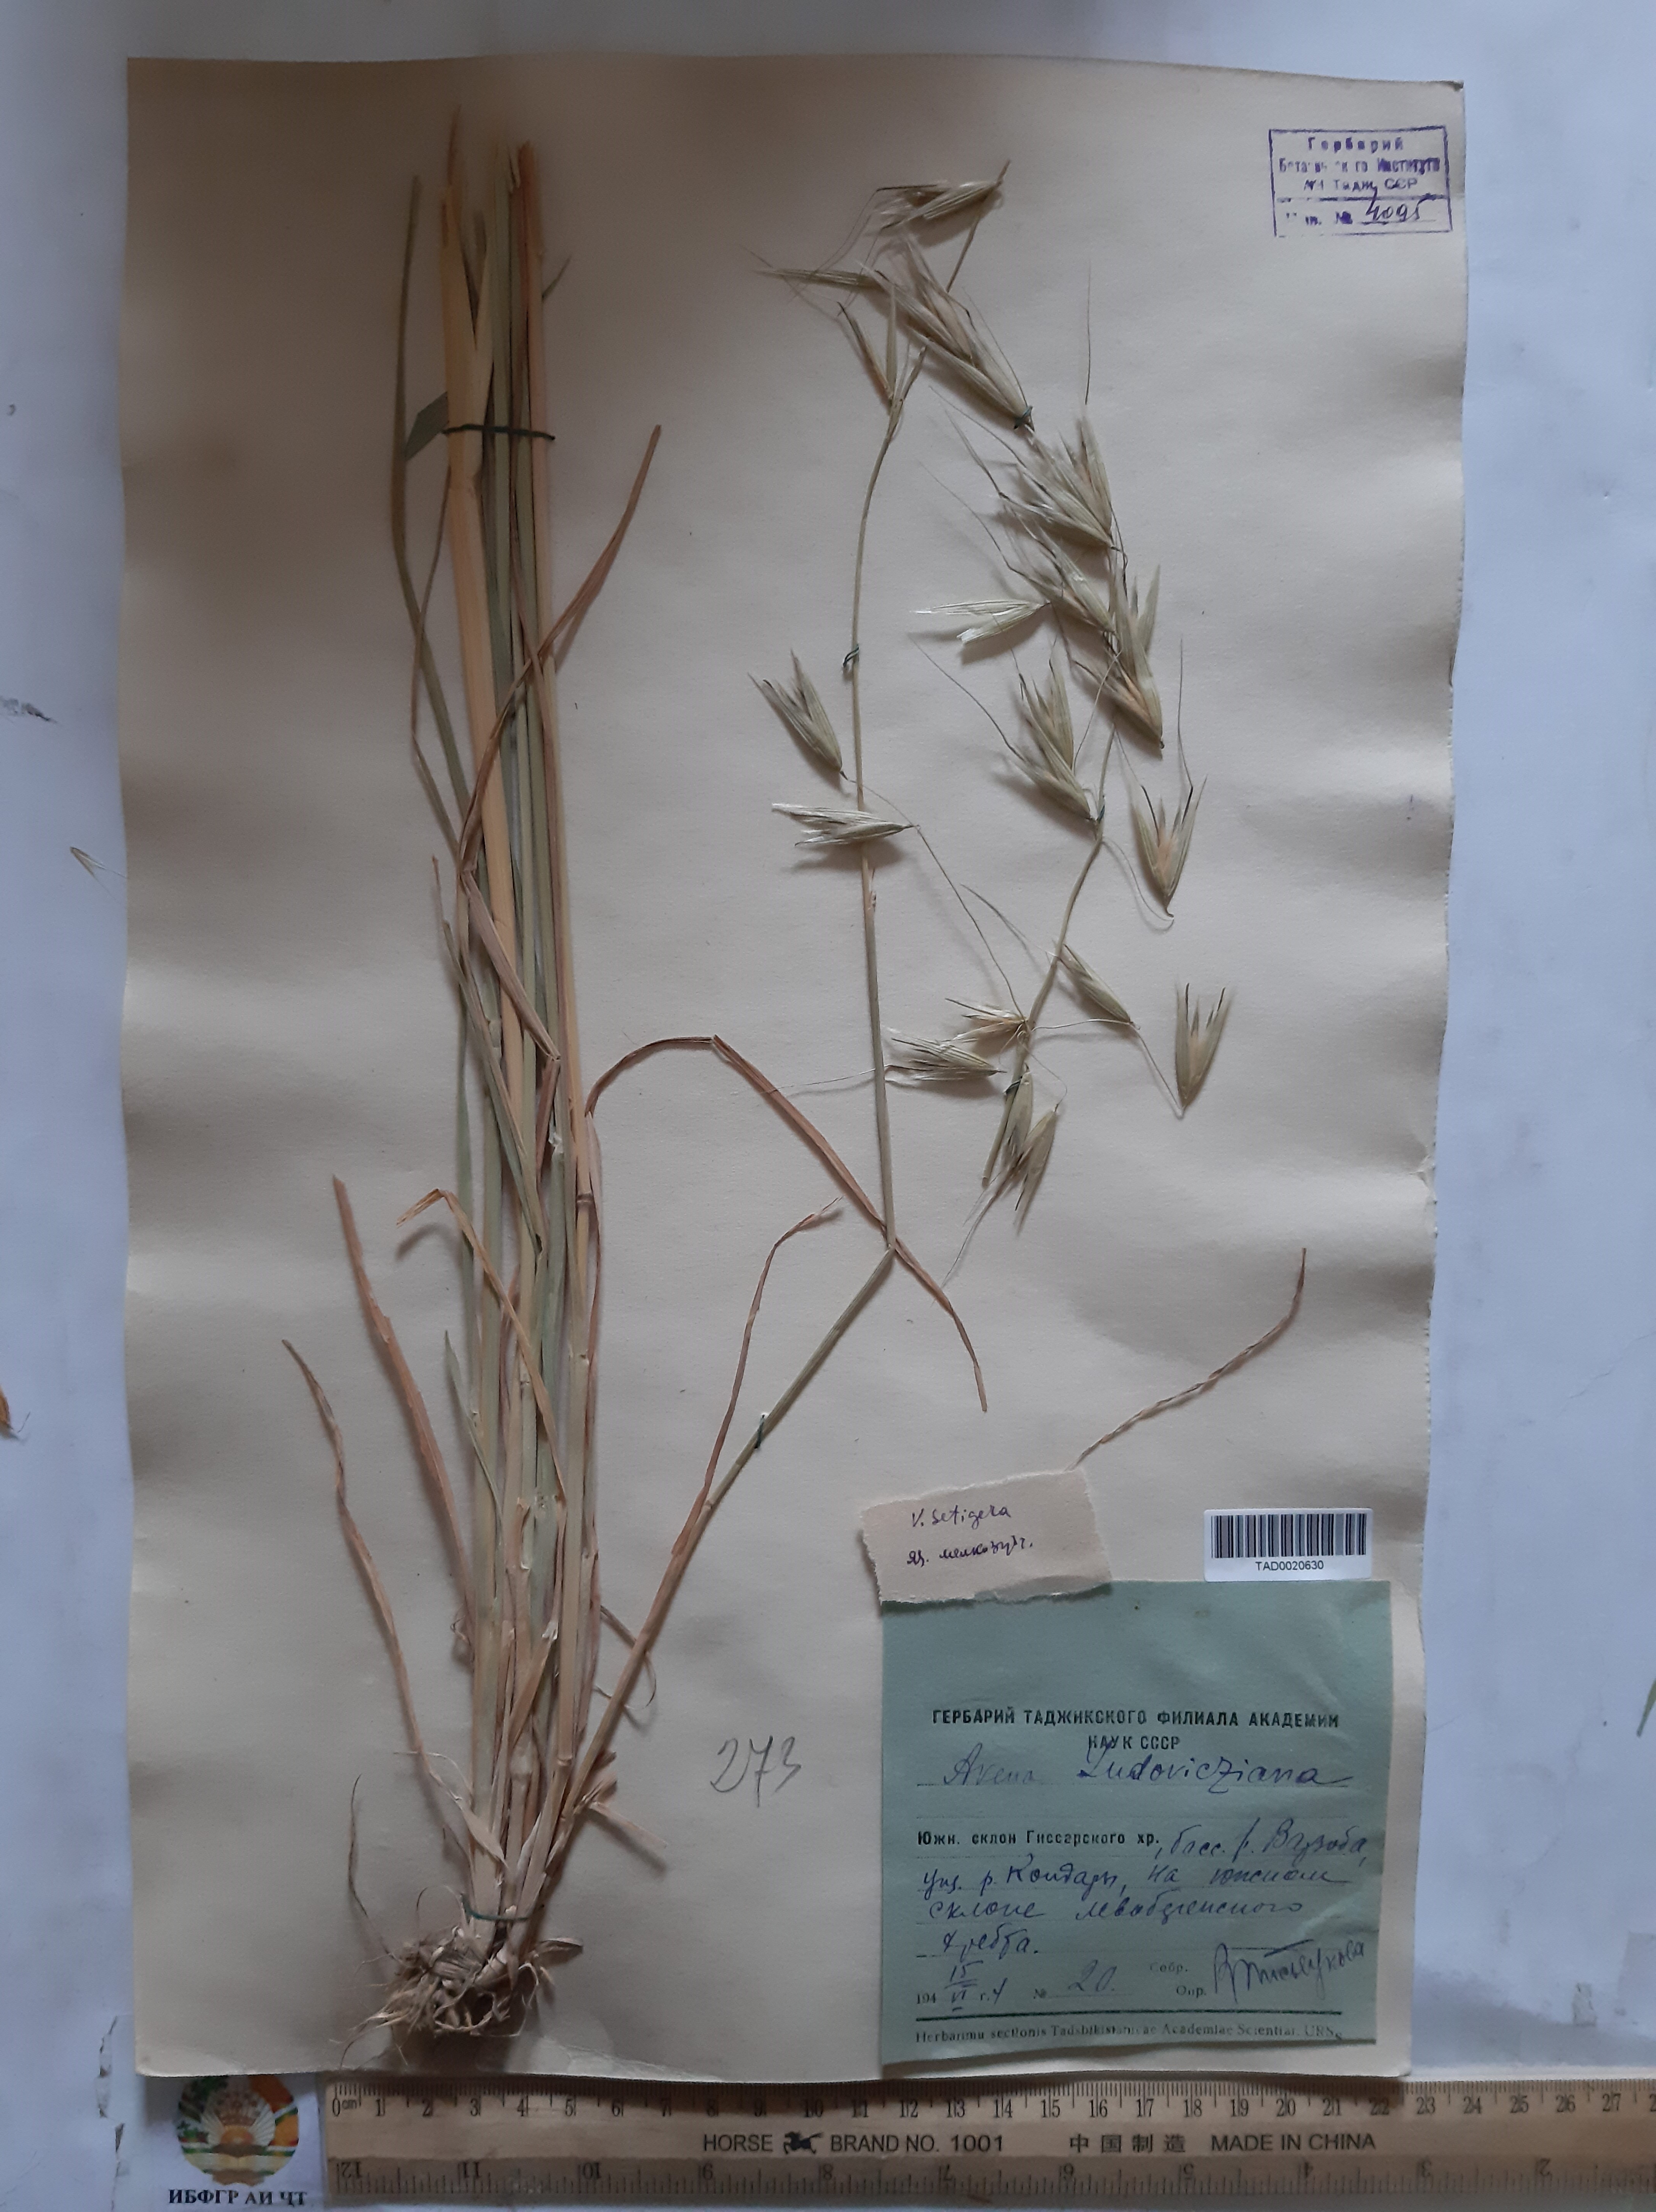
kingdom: Plantae
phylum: Tracheophyta
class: Liliopsida
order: Poales
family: Poaceae
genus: Avena
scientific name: Avena sterilis
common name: Animated oat
